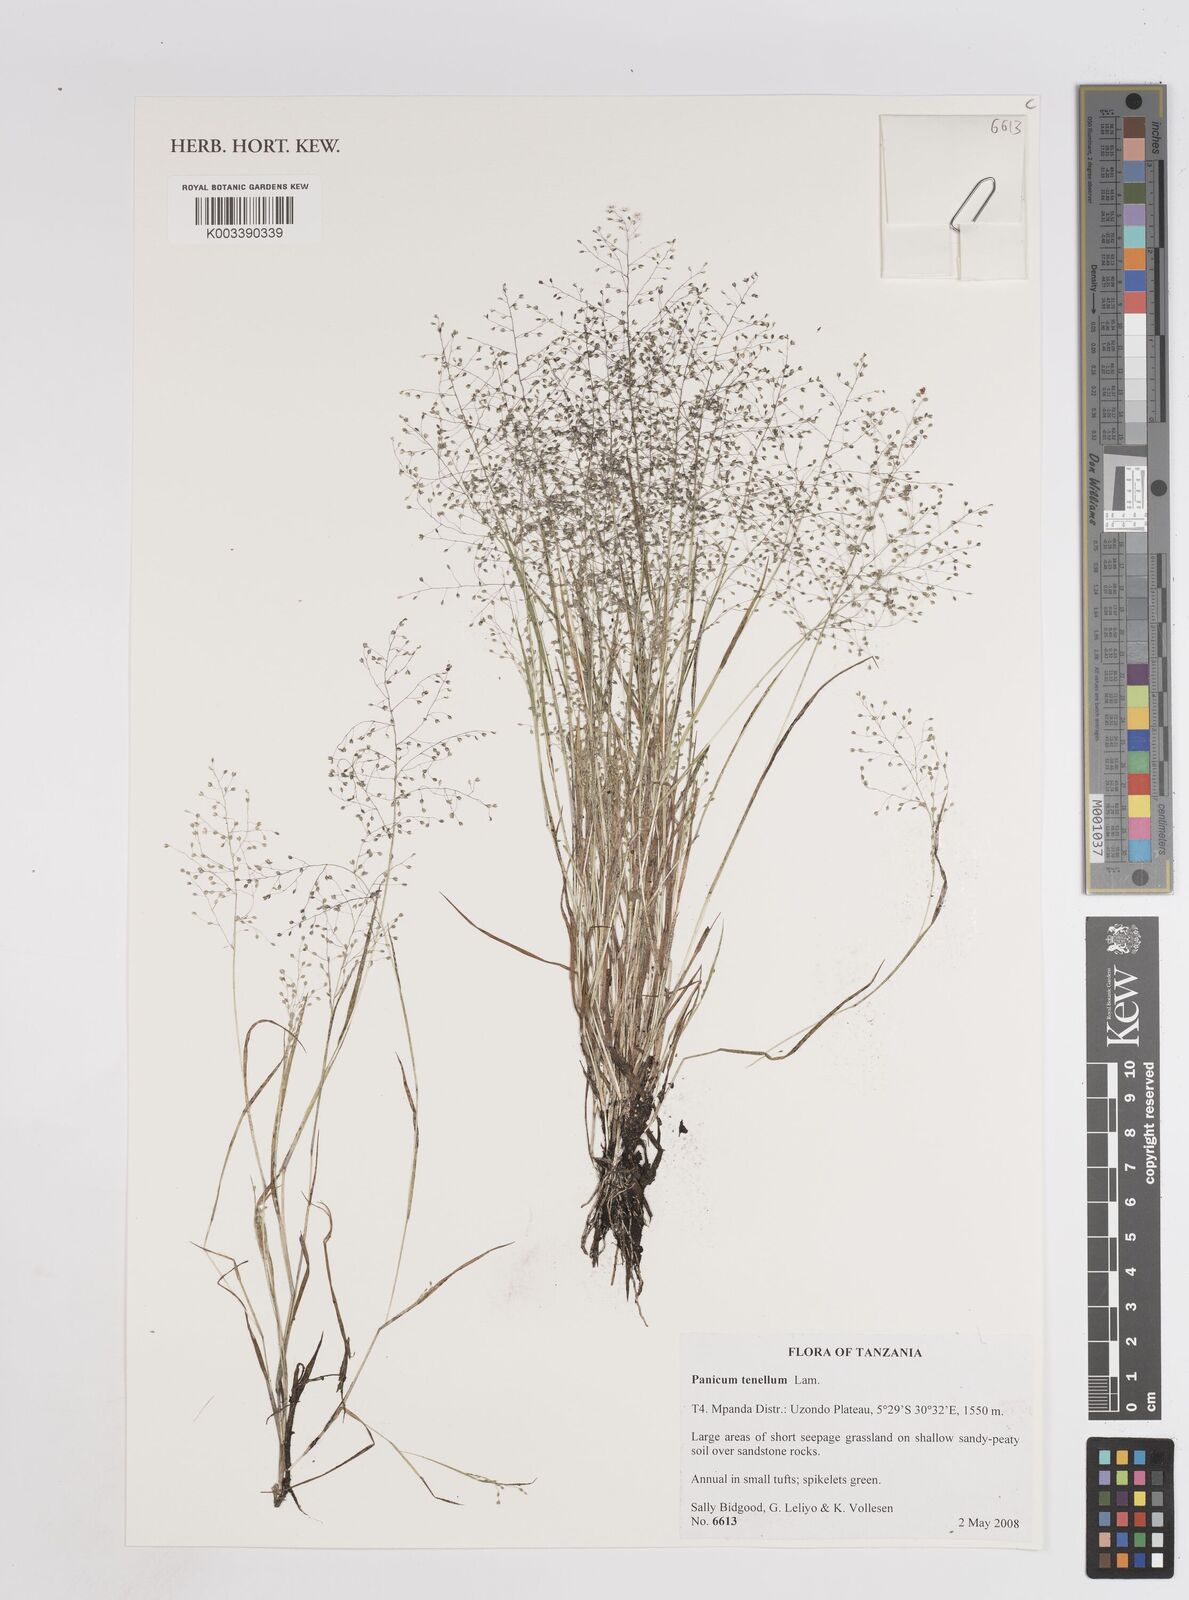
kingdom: Plantae
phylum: Tracheophyta
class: Liliopsida
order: Poales
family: Poaceae
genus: Trichanthecium
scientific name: Trichanthecium tenellum
